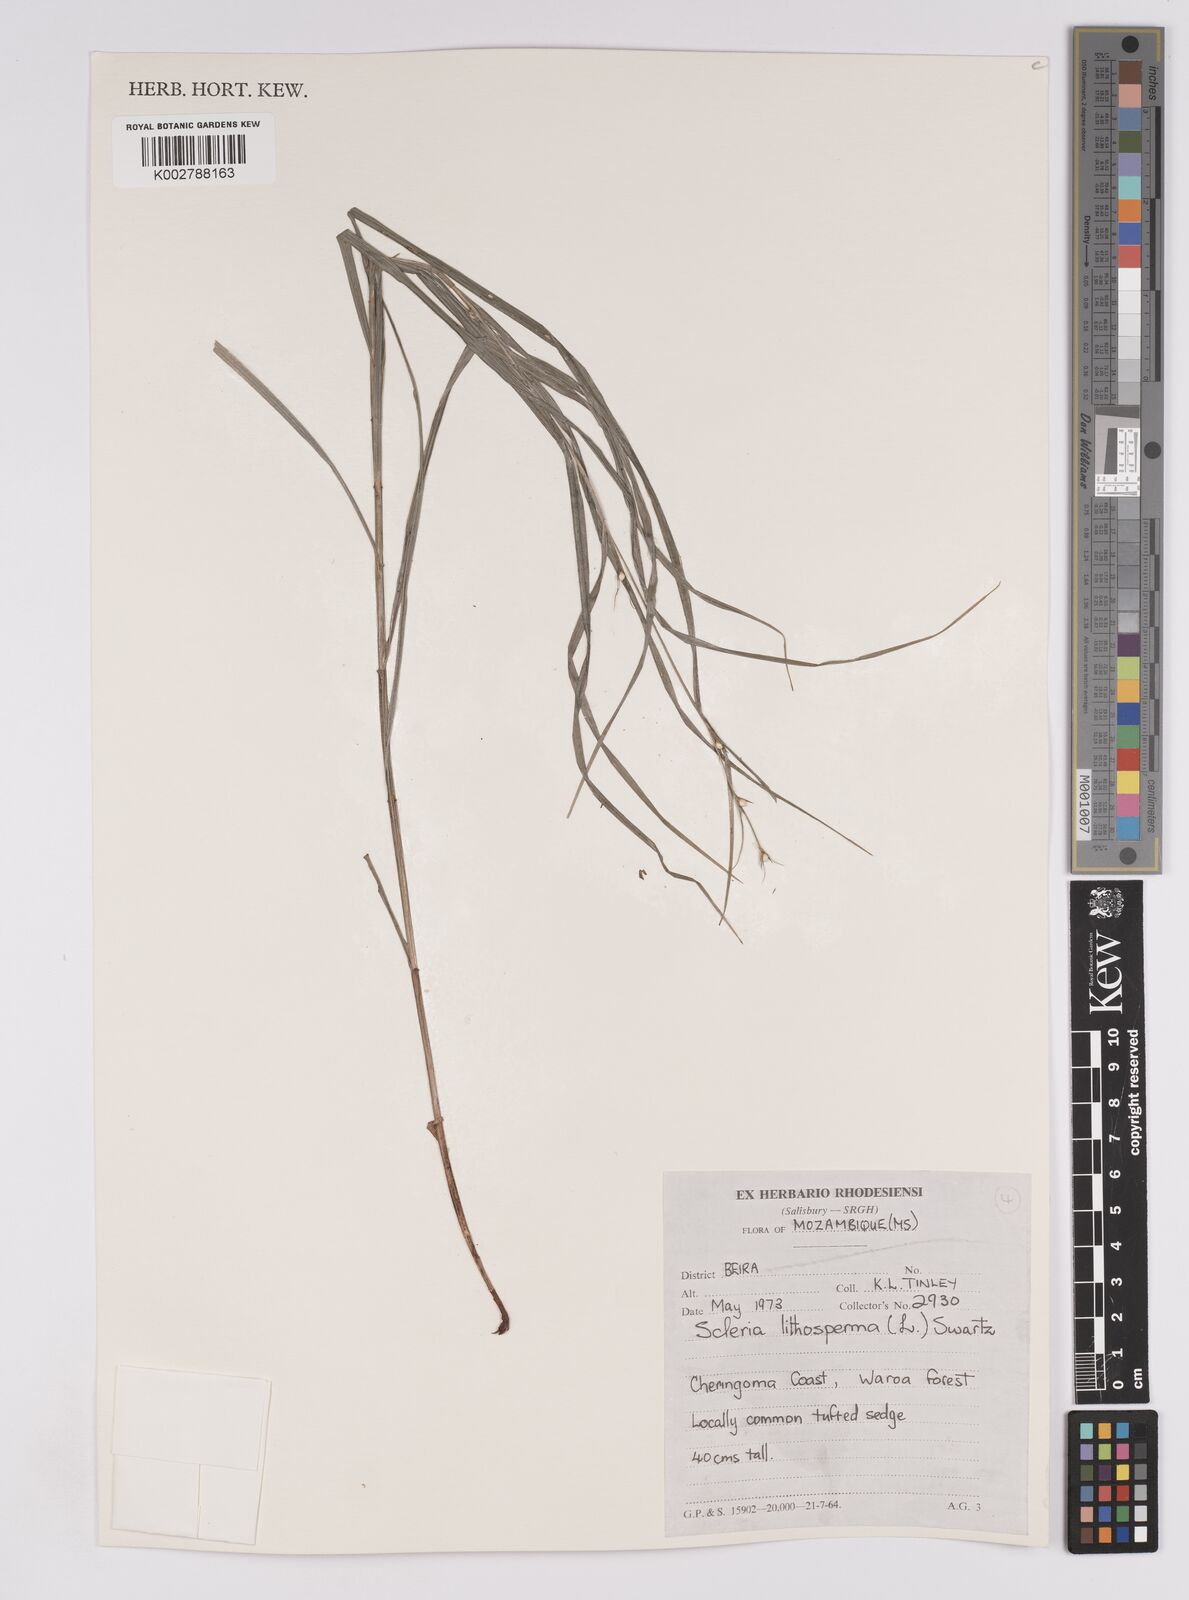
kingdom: Plantae
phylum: Tracheophyta
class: Liliopsida
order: Poales
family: Cyperaceae
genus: Scleria
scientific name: Scleria lithosperma
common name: Florida keys nut-rush
